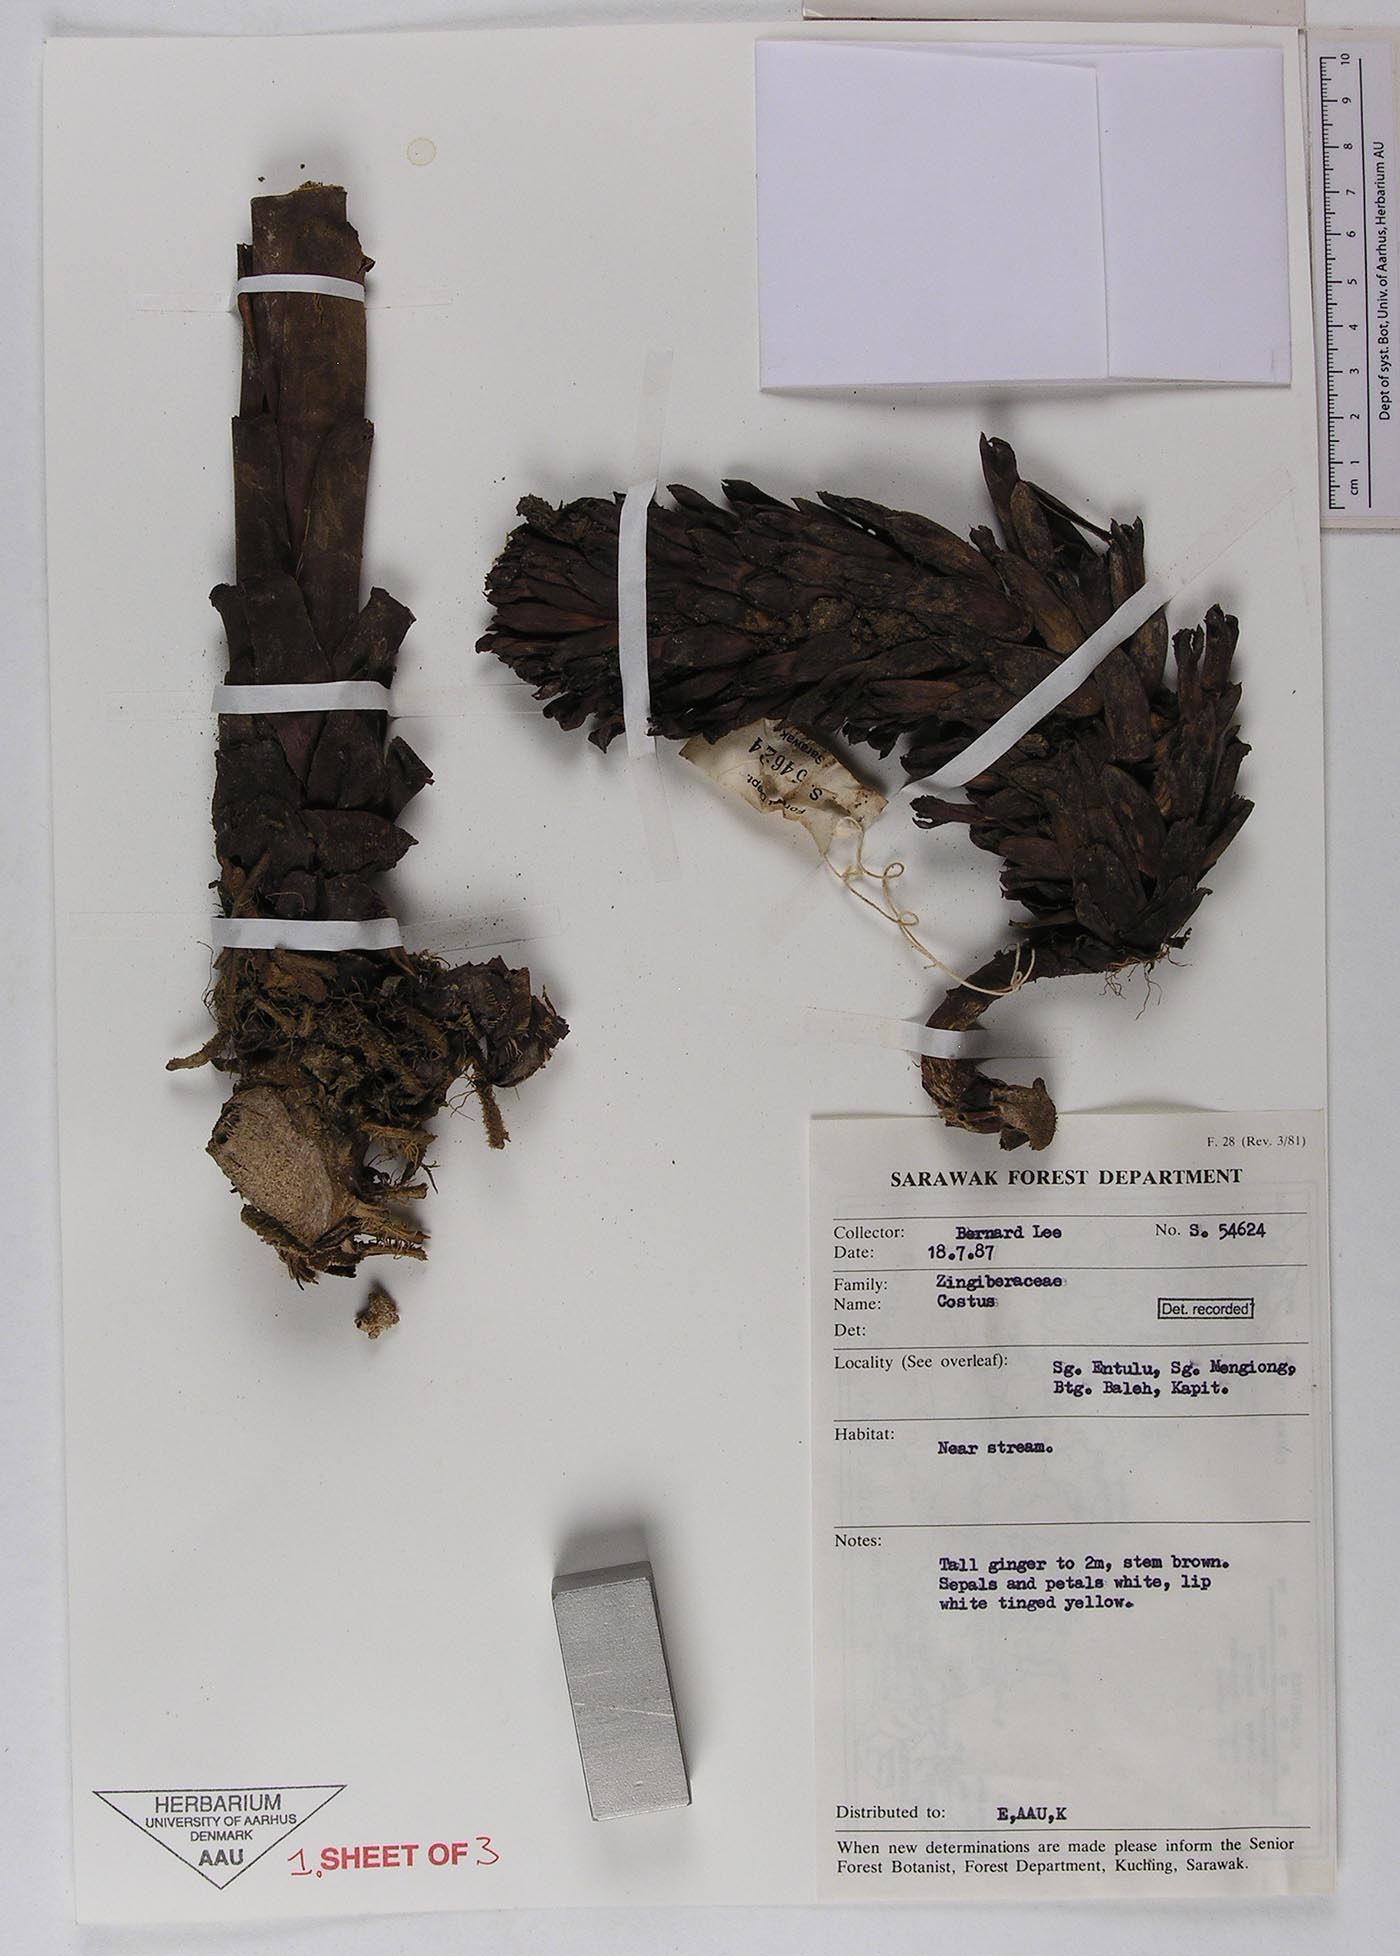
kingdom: Plantae
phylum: Tracheophyta
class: Liliopsida
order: Zingiberales
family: Costaceae
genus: Costus
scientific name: Costus
